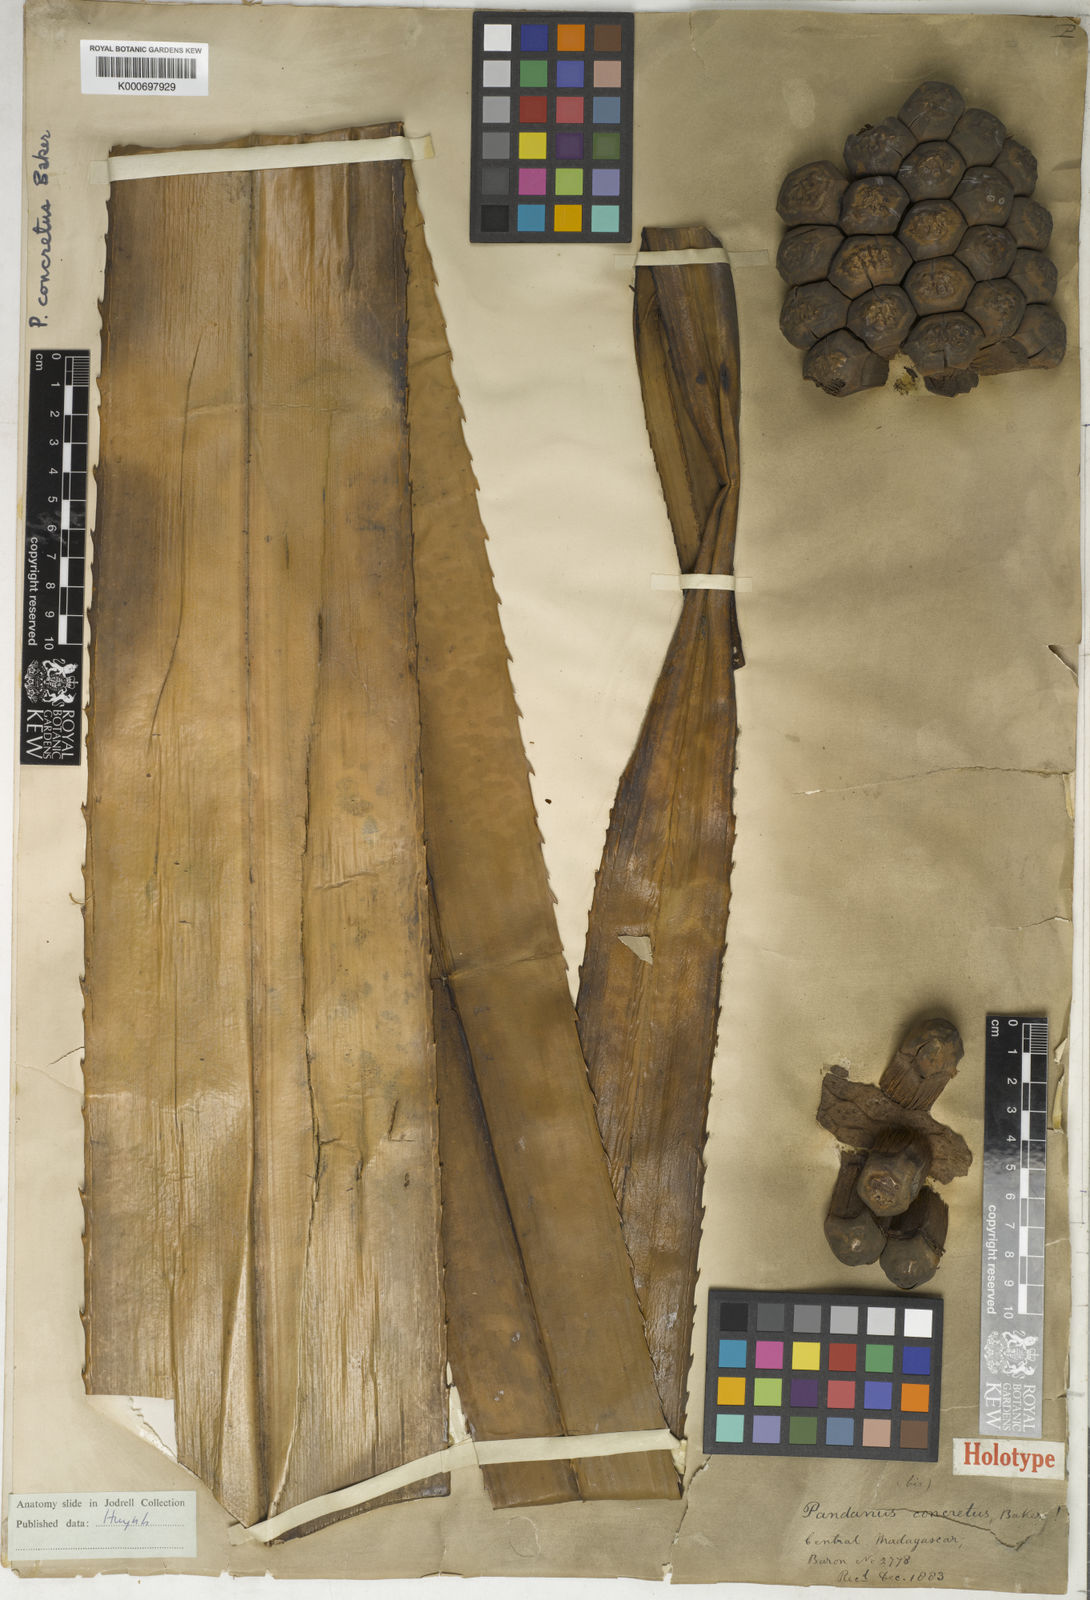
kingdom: Plantae
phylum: Tracheophyta
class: Liliopsida
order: Pandanales
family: Pandanaceae
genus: Pandanus
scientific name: Pandanus concretus
